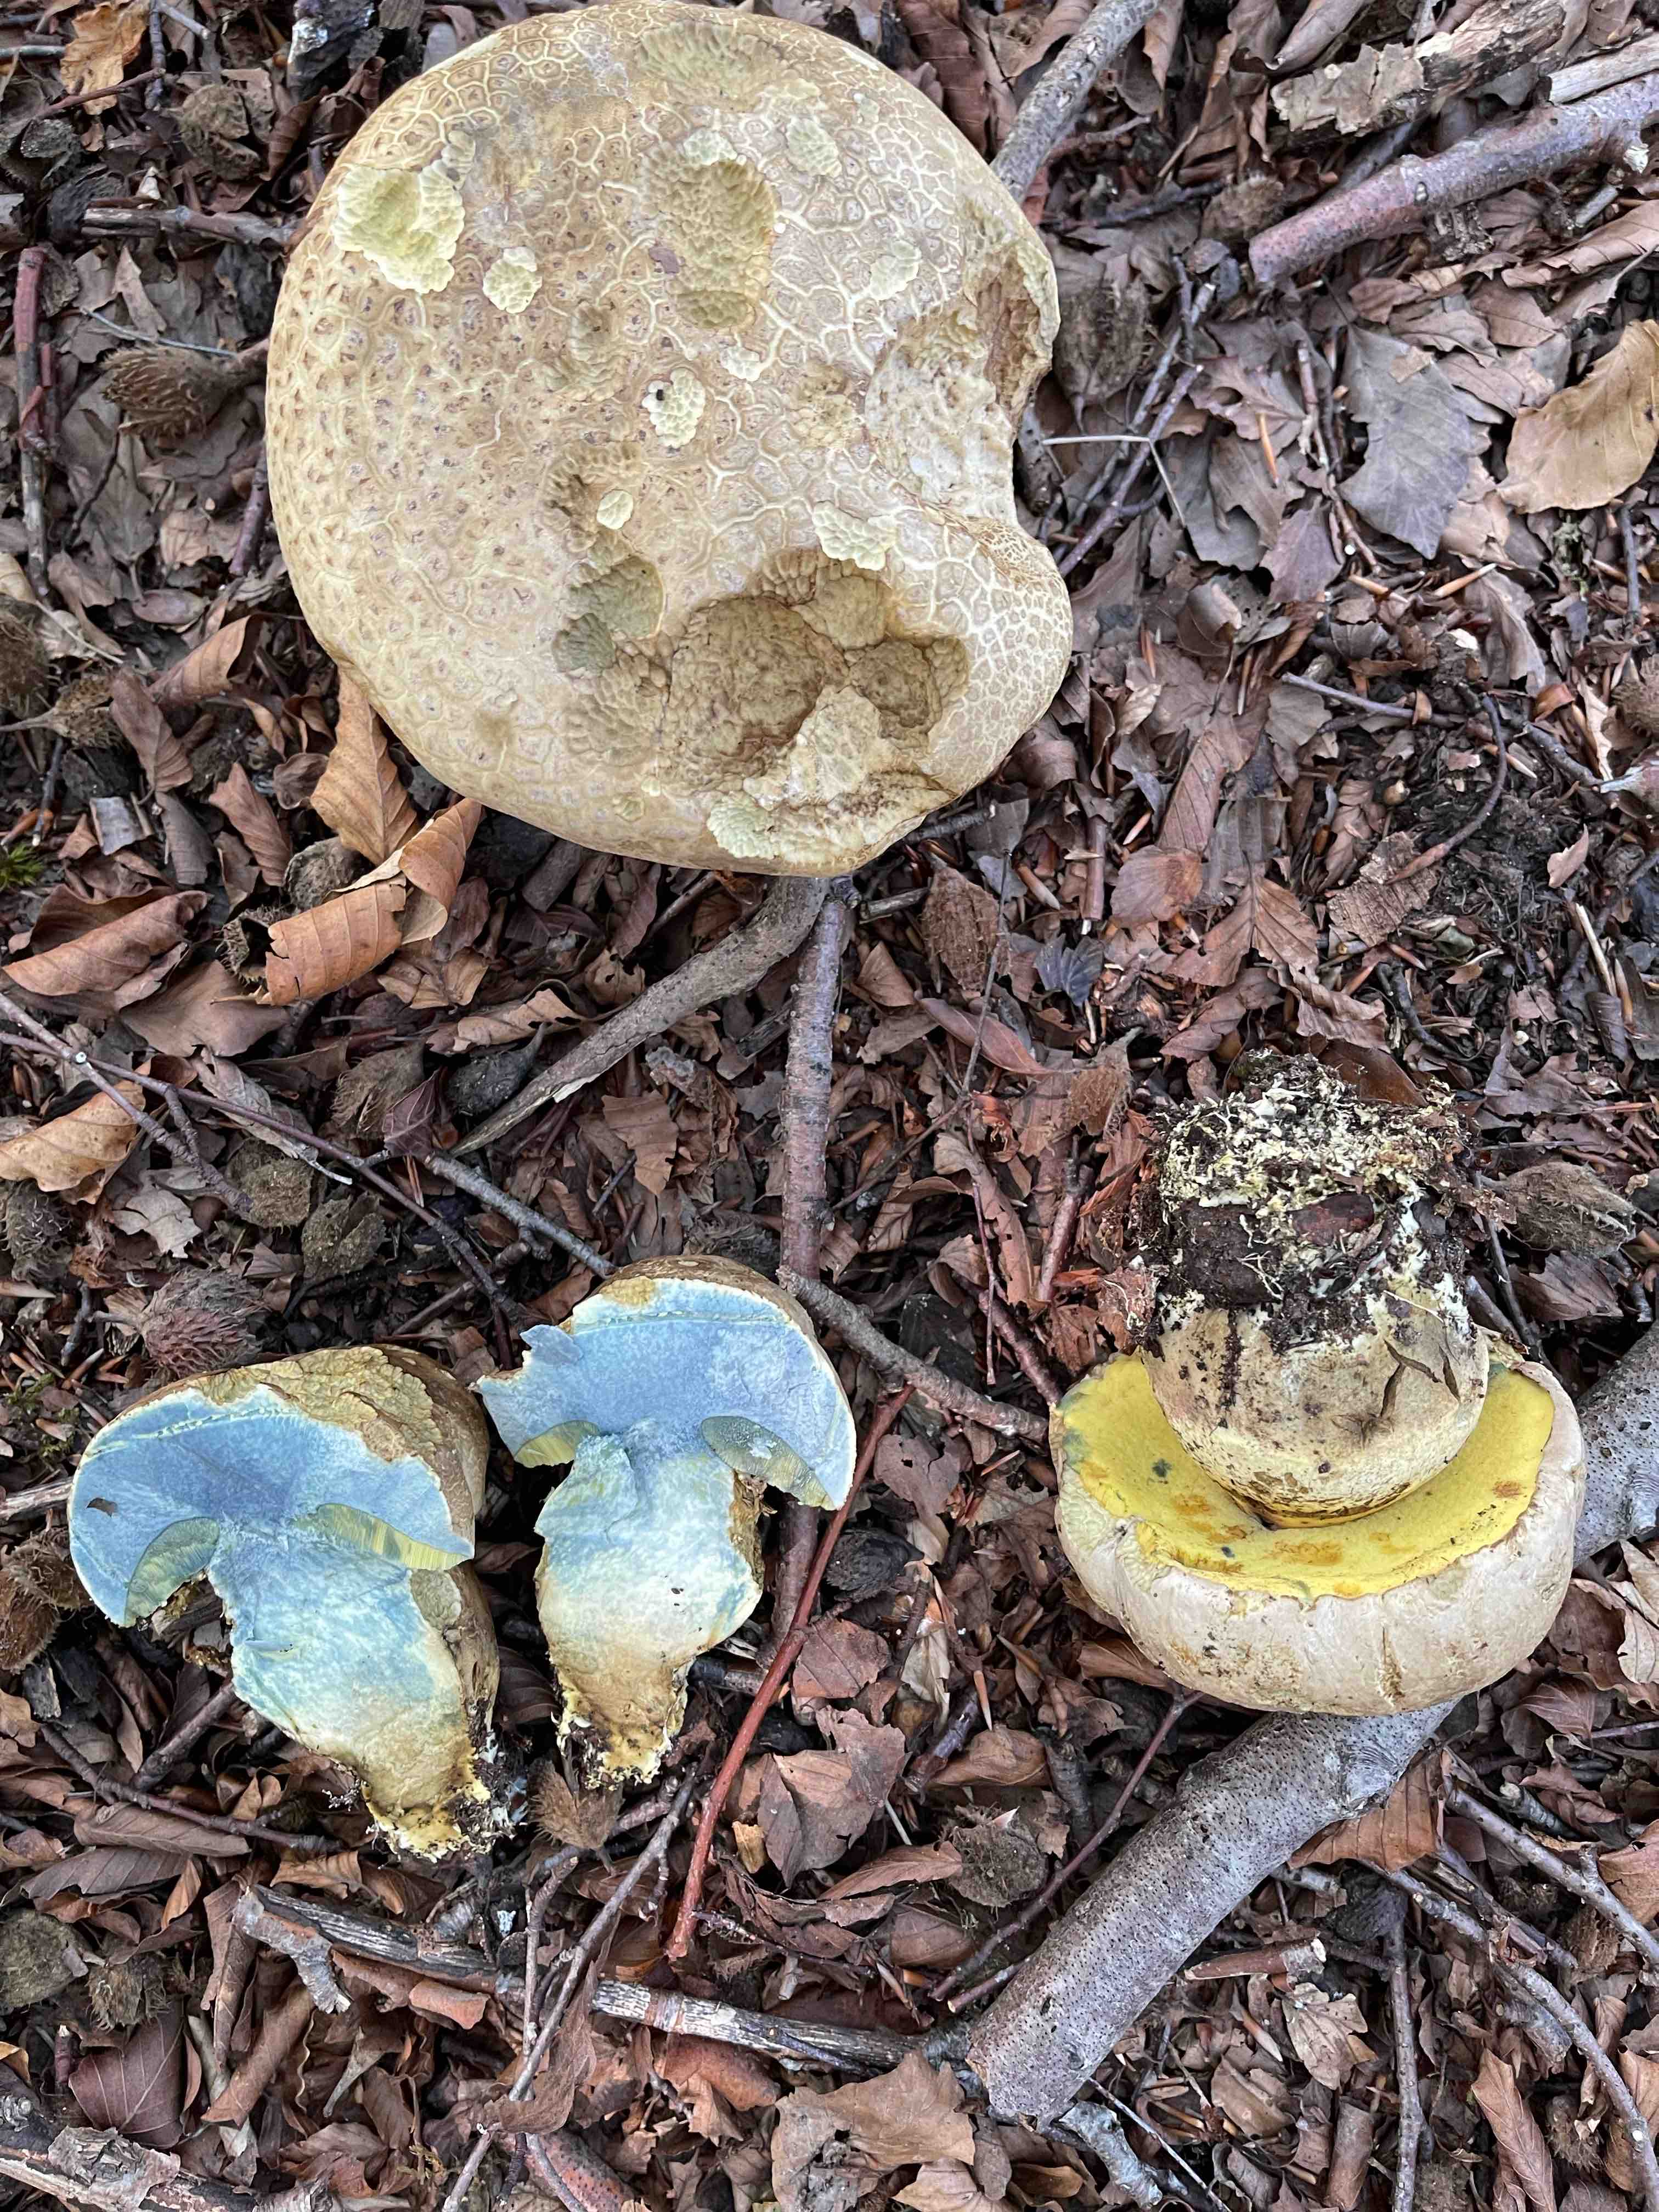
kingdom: Fungi
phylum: Basidiomycota
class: Agaricomycetes
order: Boletales
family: Boletaceae
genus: Caloboletus
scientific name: Caloboletus radicans
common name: rod-rørhat
